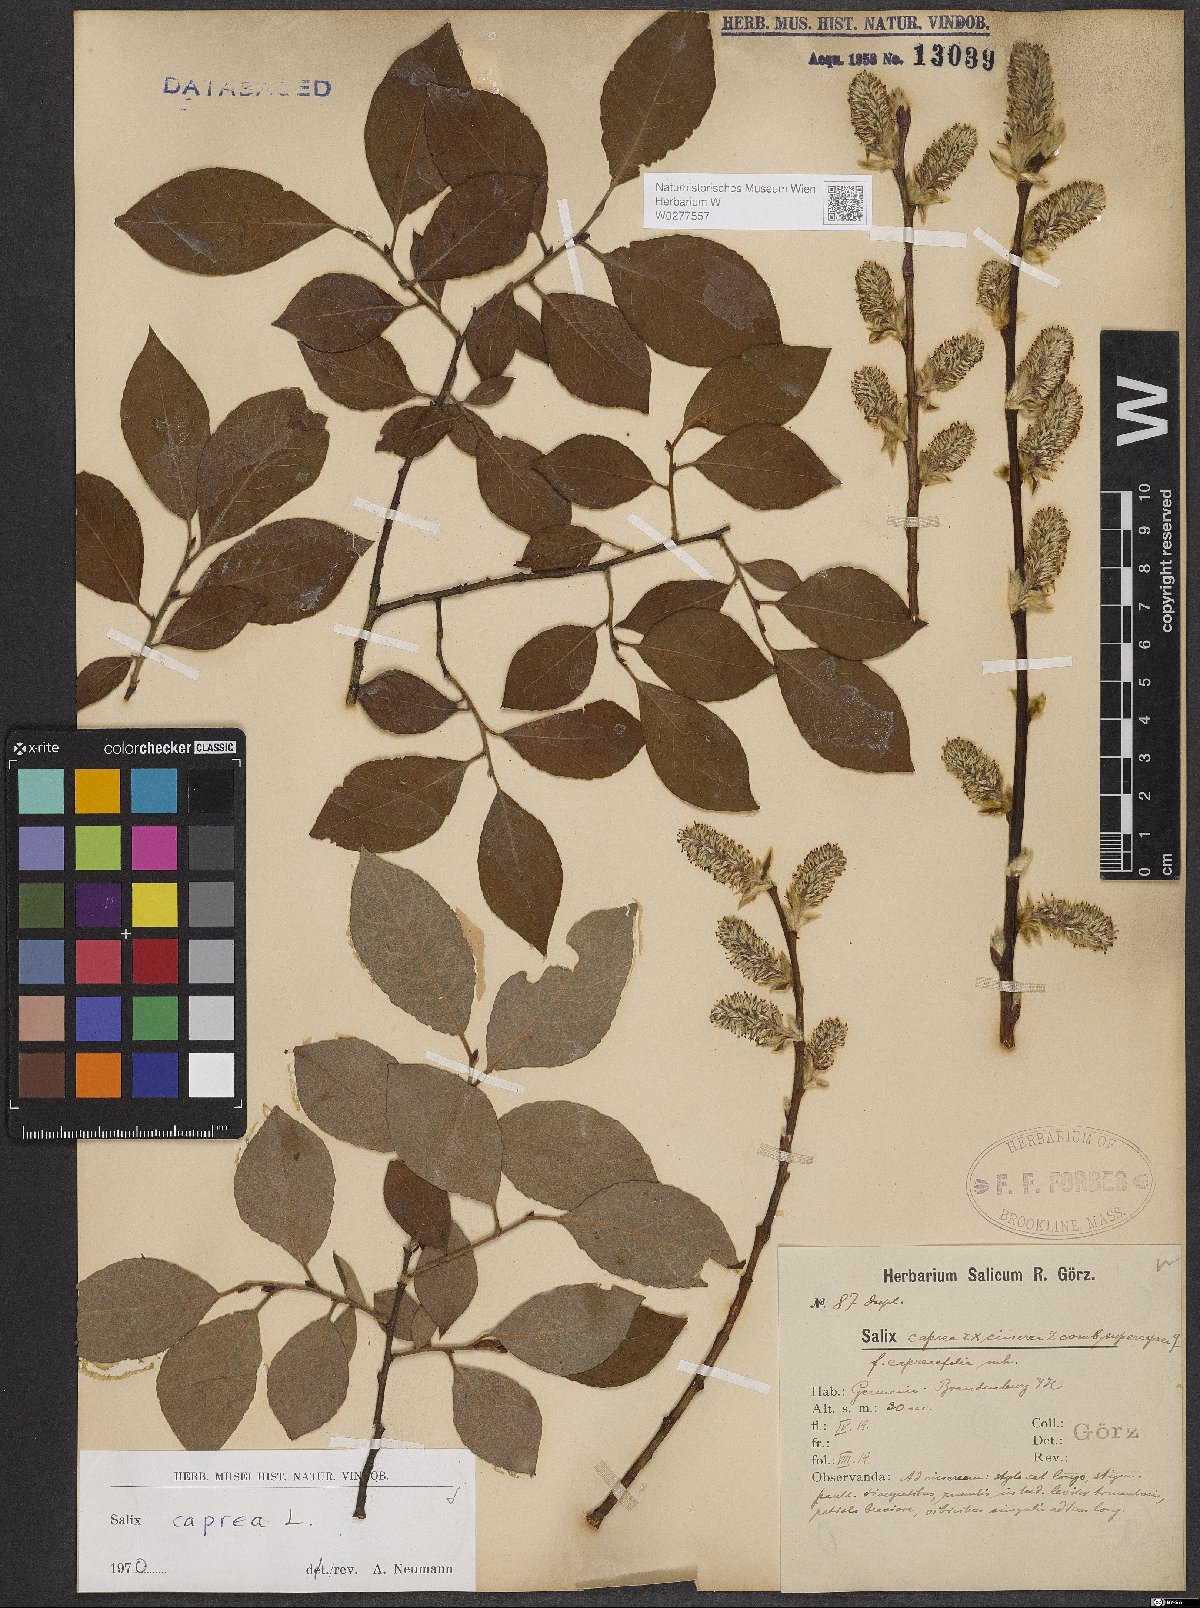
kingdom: Plantae
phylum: Tracheophyta
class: Magnoliopsida
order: Malpighiales
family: Salicaceae
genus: Salix
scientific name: Salix caprea
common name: Goat willow
